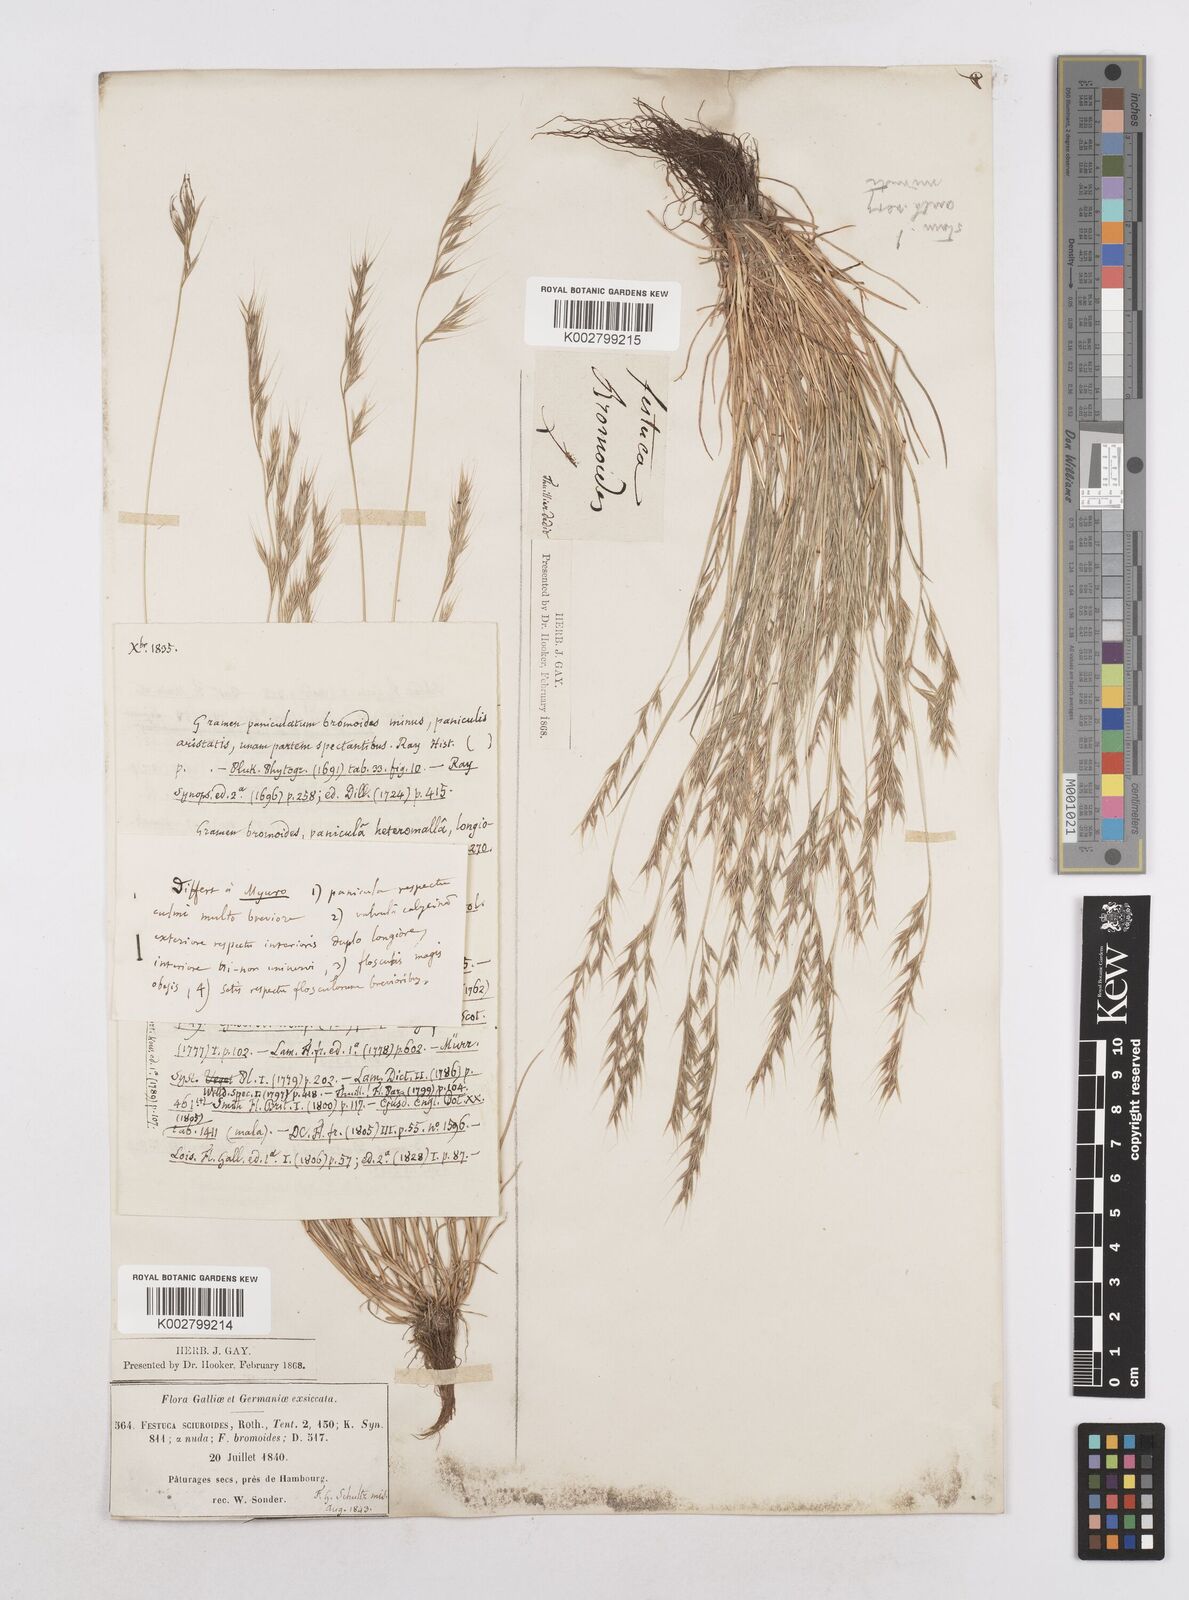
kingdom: Plantae
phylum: Tracheophyta
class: Liliopsida
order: Poales
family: Poaceae
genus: Festuca
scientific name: Festuca bromoides
